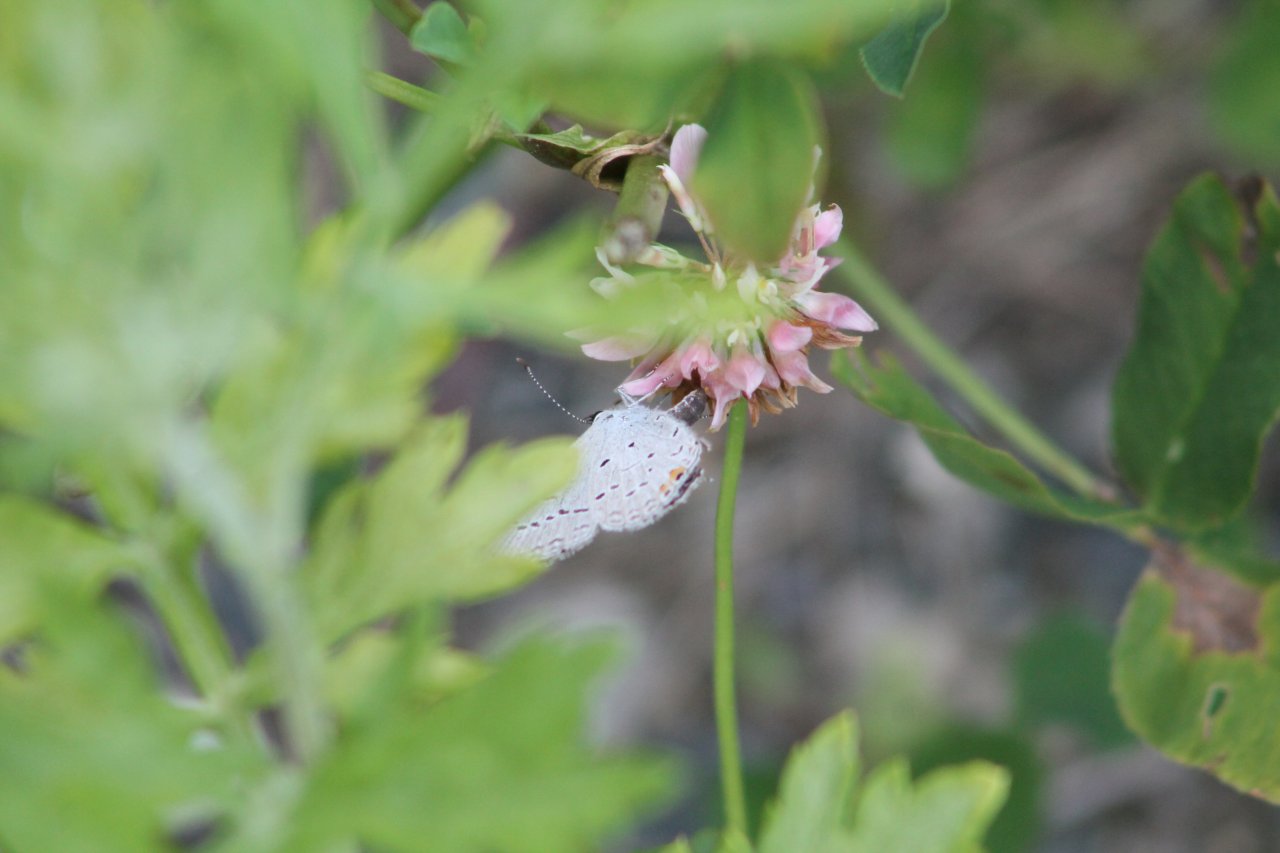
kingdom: Animalia
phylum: Arthropoda
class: Insecta
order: Lepidoptera
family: Lycaenidae
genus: Elkalyce
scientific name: Elkalyce comyntas
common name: Eastern Tailed-Blue
